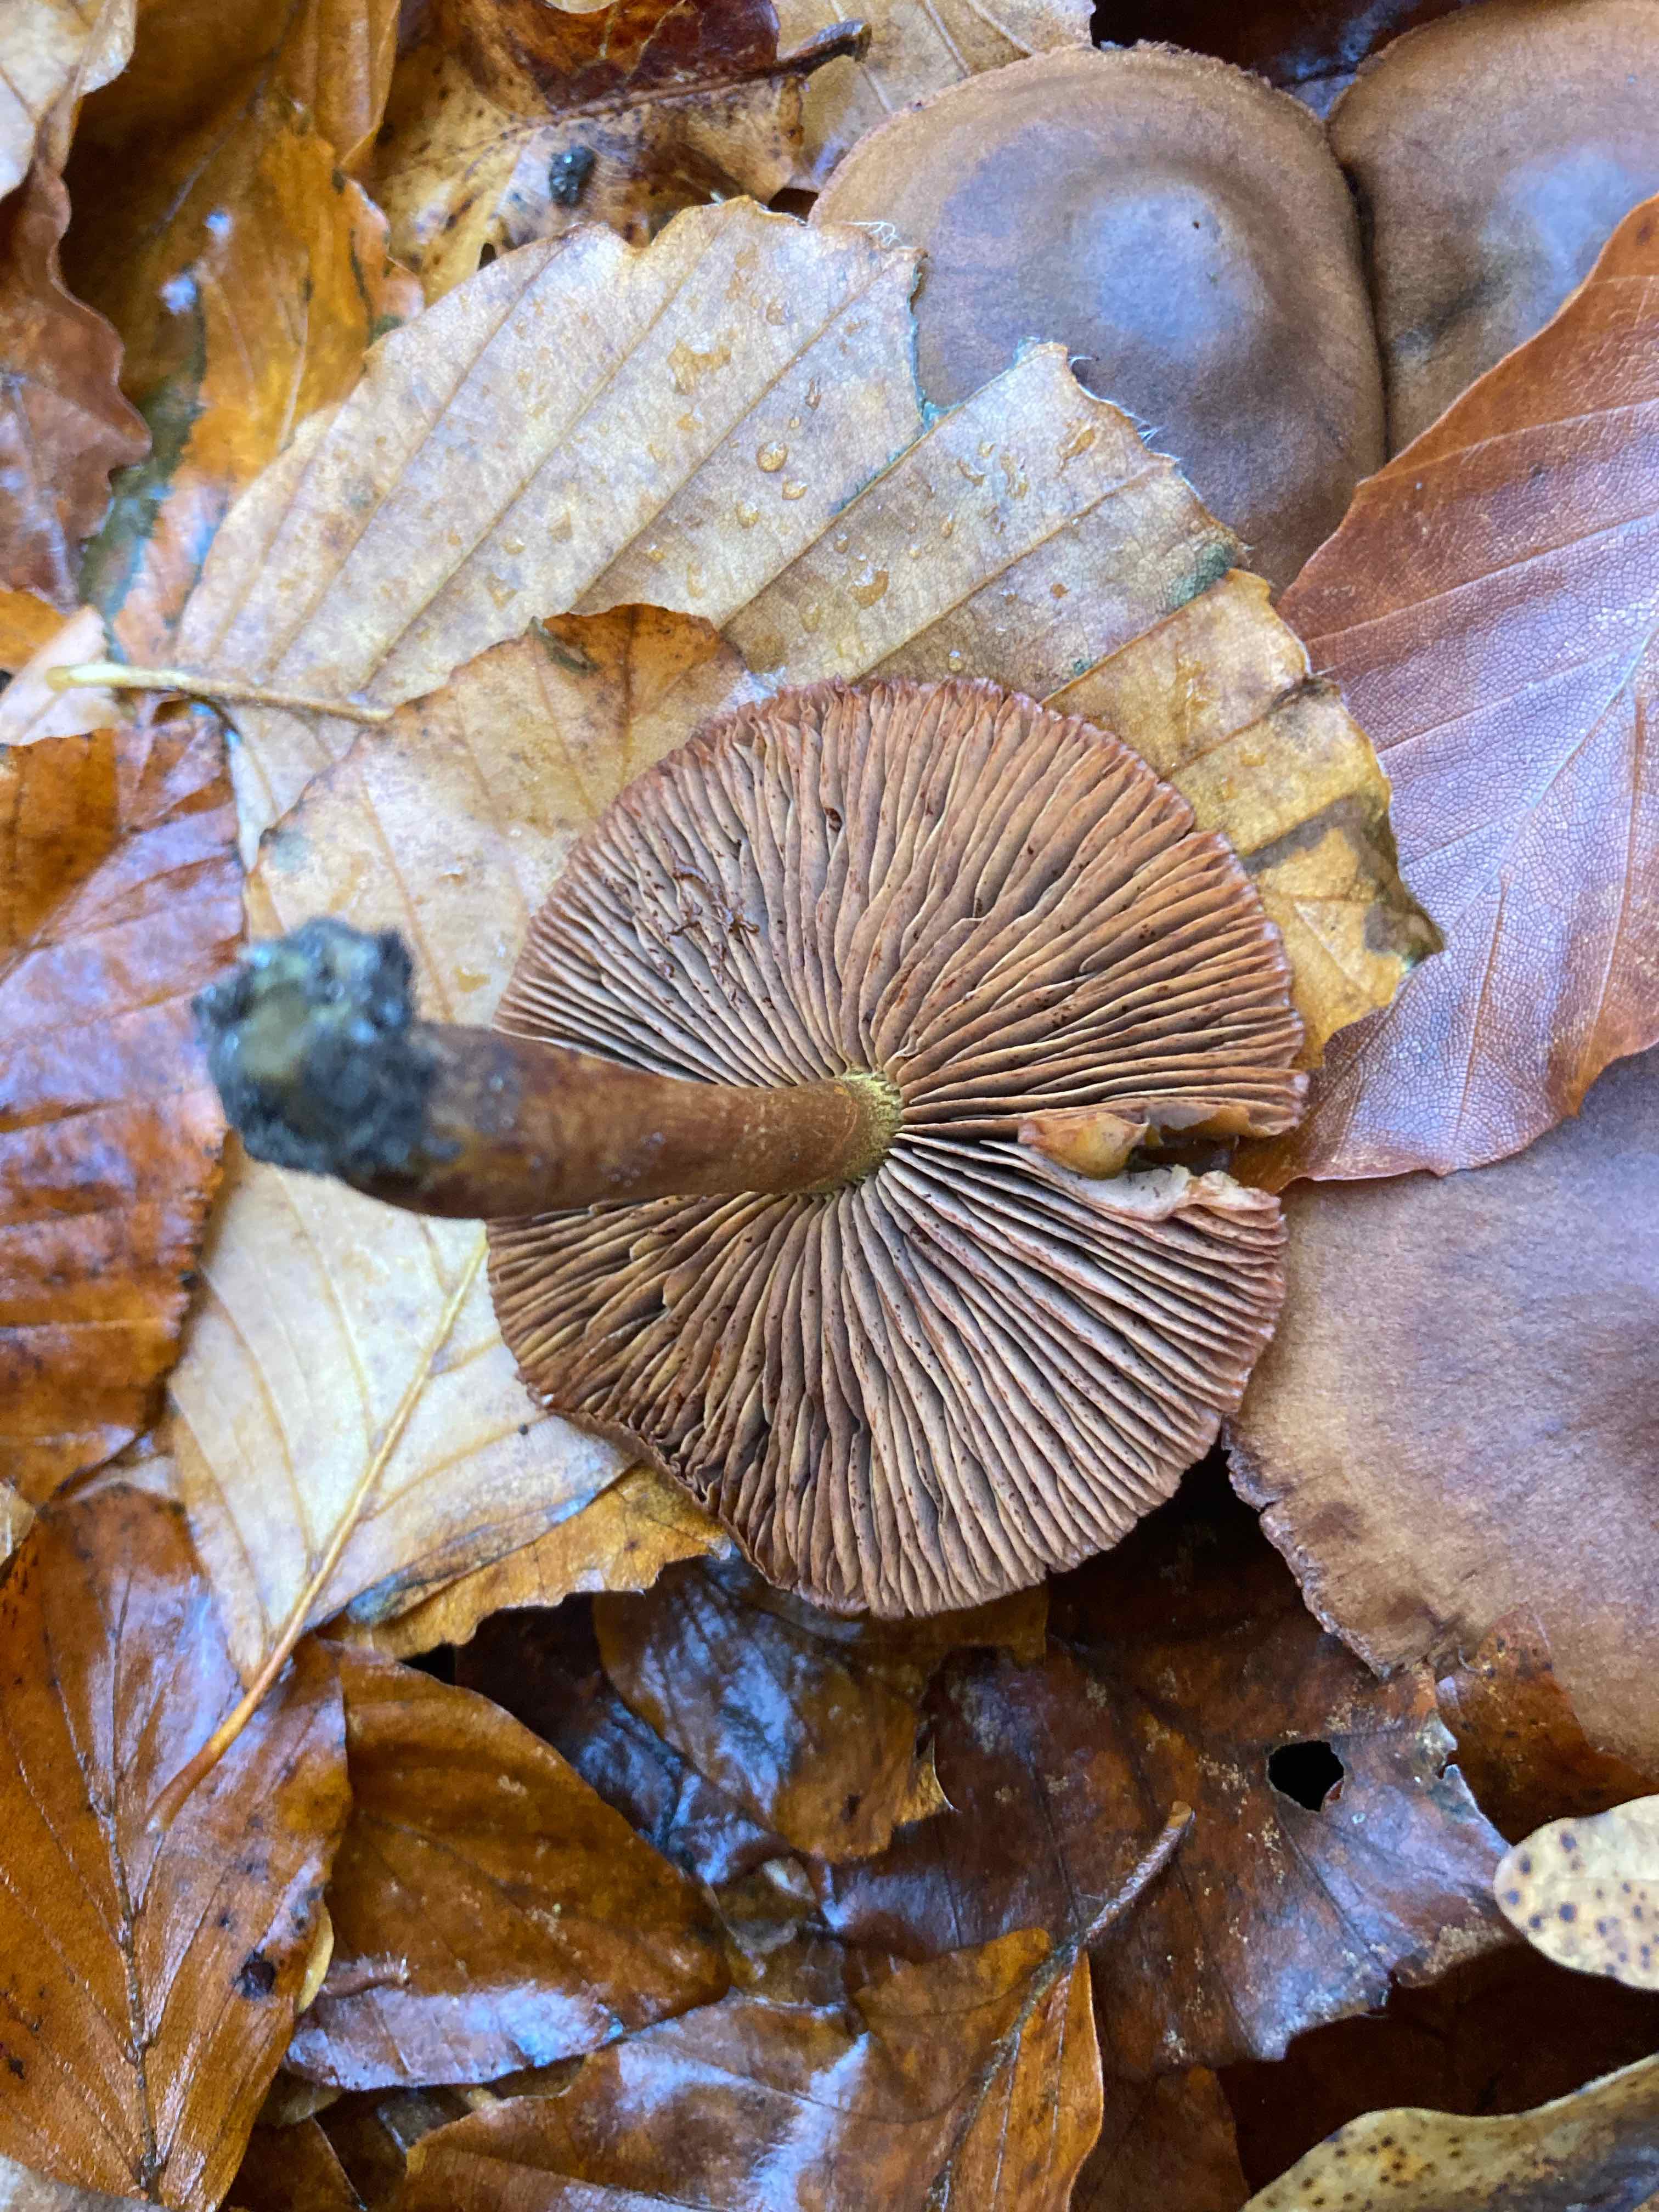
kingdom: Fungi
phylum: Basidiomycota
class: Agaricomycetes
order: Agaricales
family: Cortinariaceae
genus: Cortinarius
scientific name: Cortinarius
